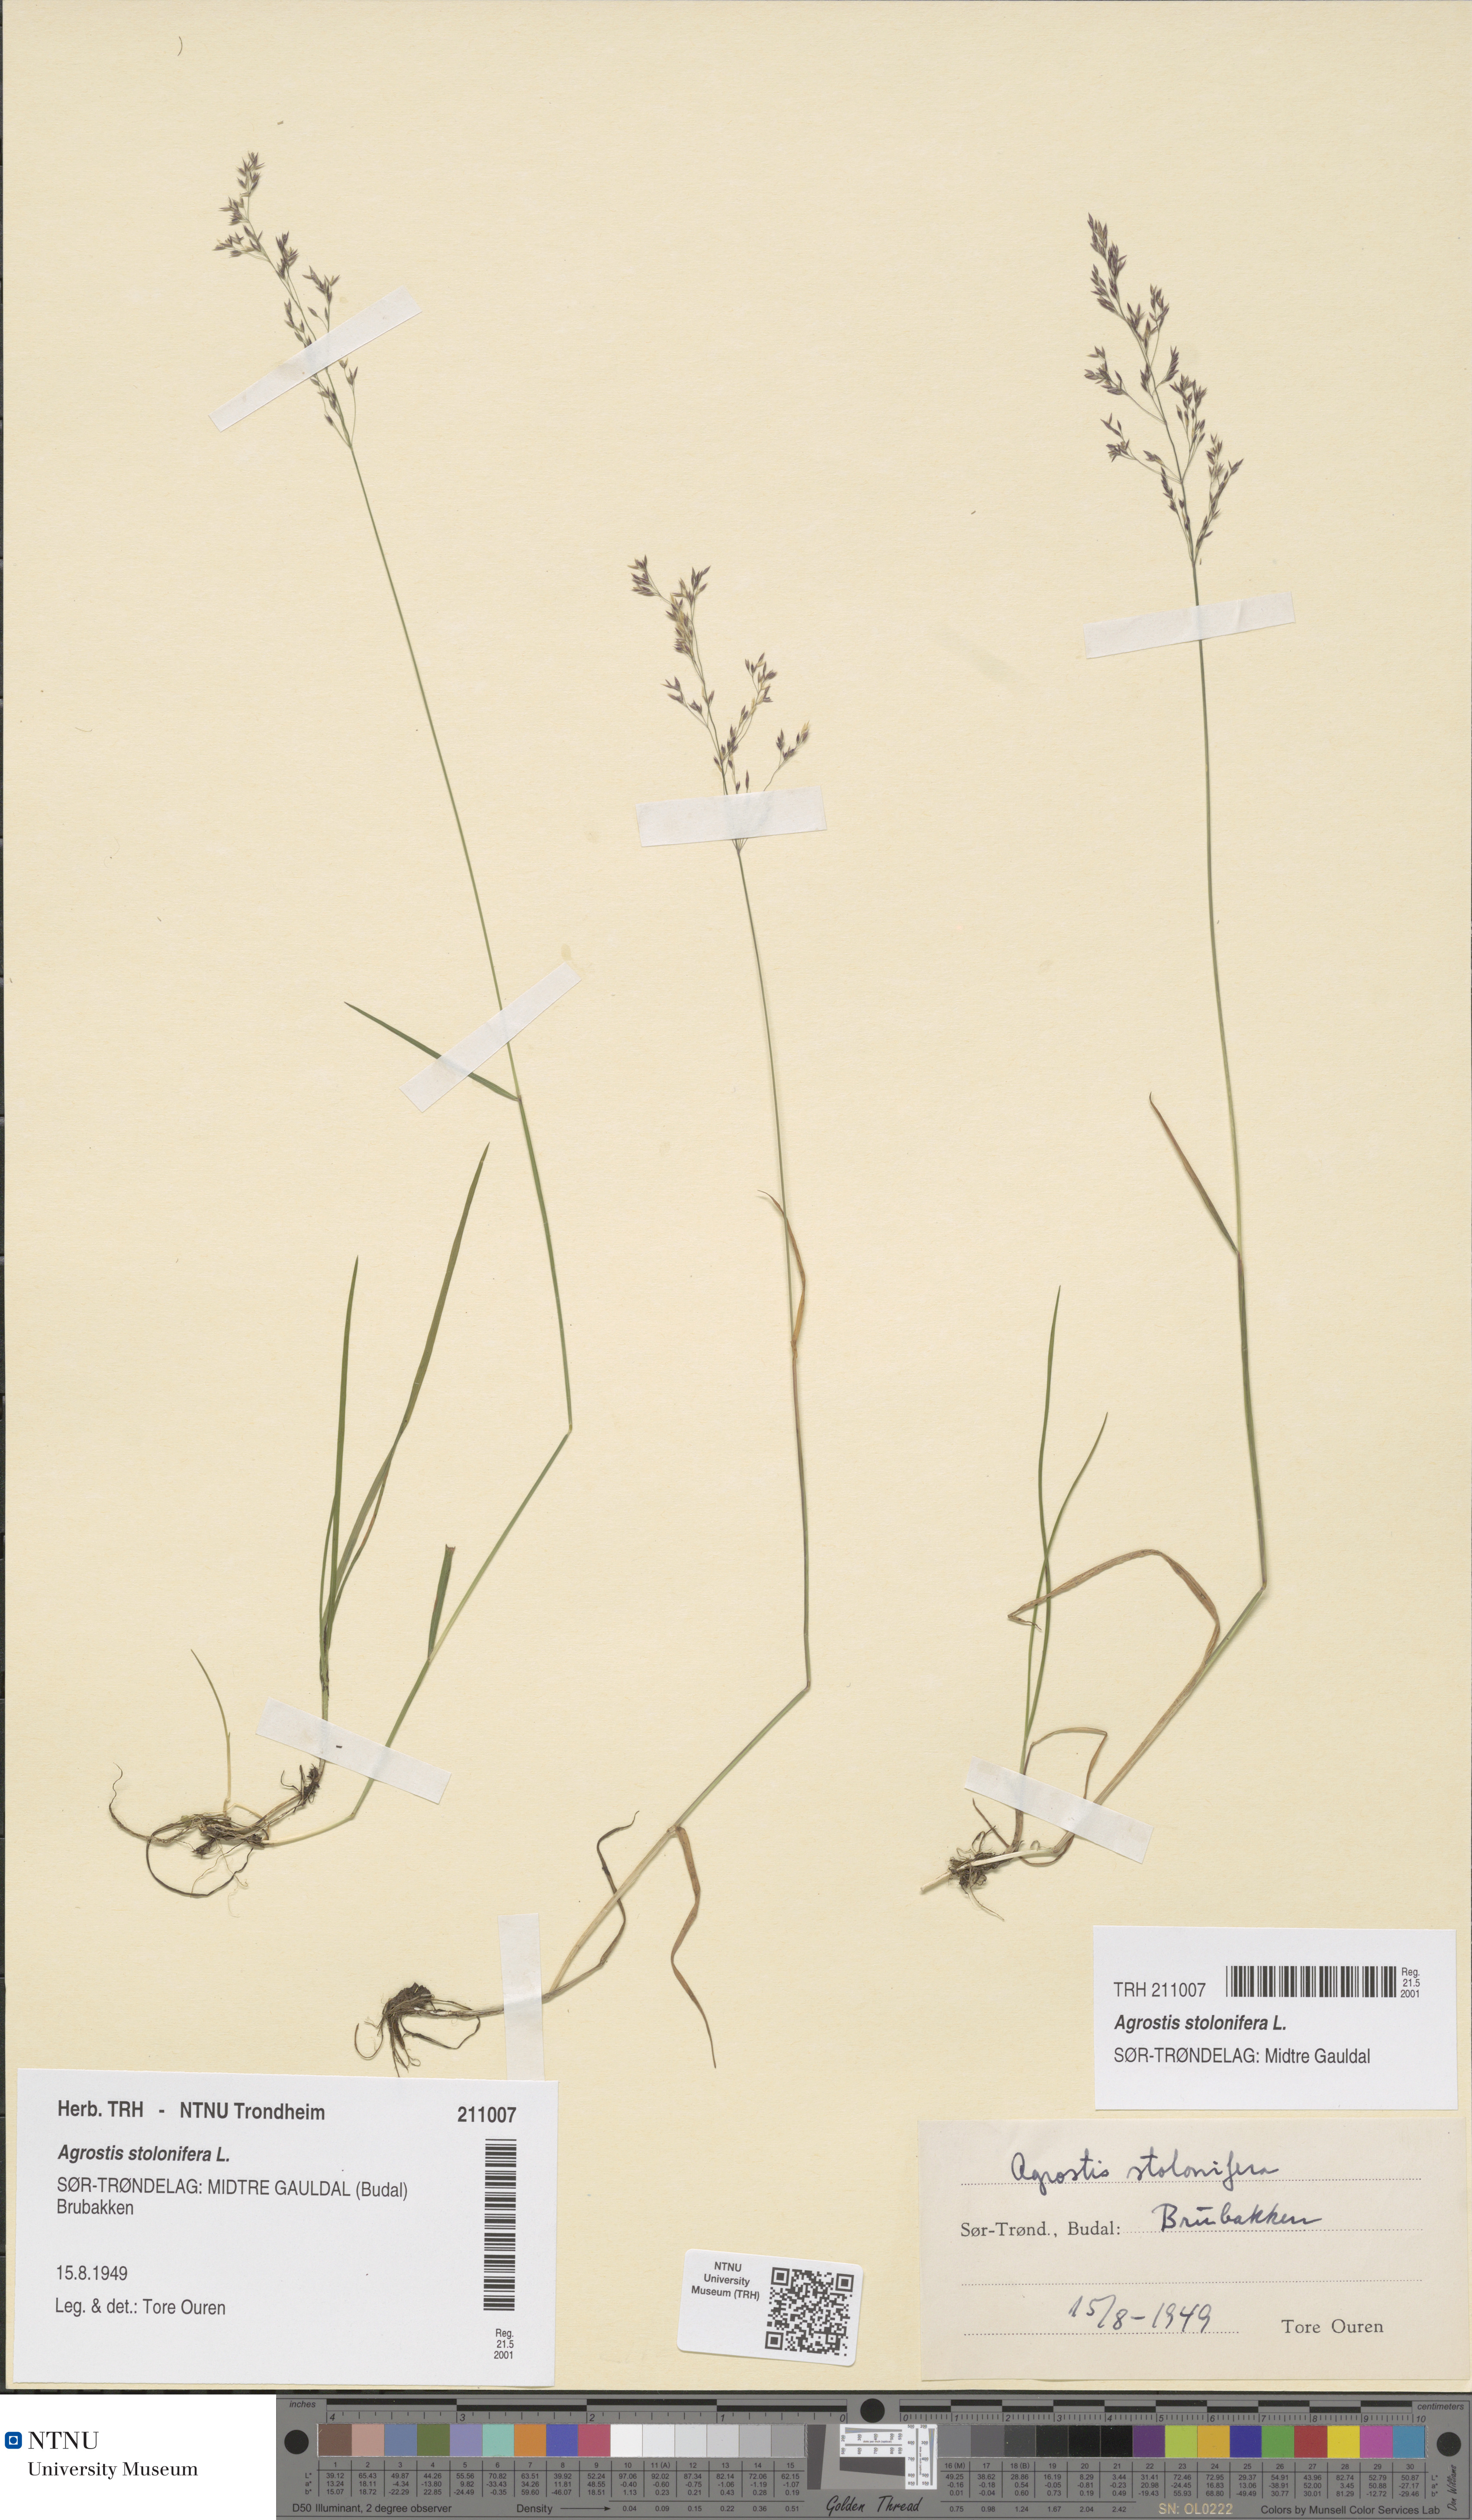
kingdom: Plantae
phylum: Tracheophyta
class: Liliopsida
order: Poales
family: Poaceae
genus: Agrostis
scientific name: Agrostis stolonifera
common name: Creeping bentgrass
